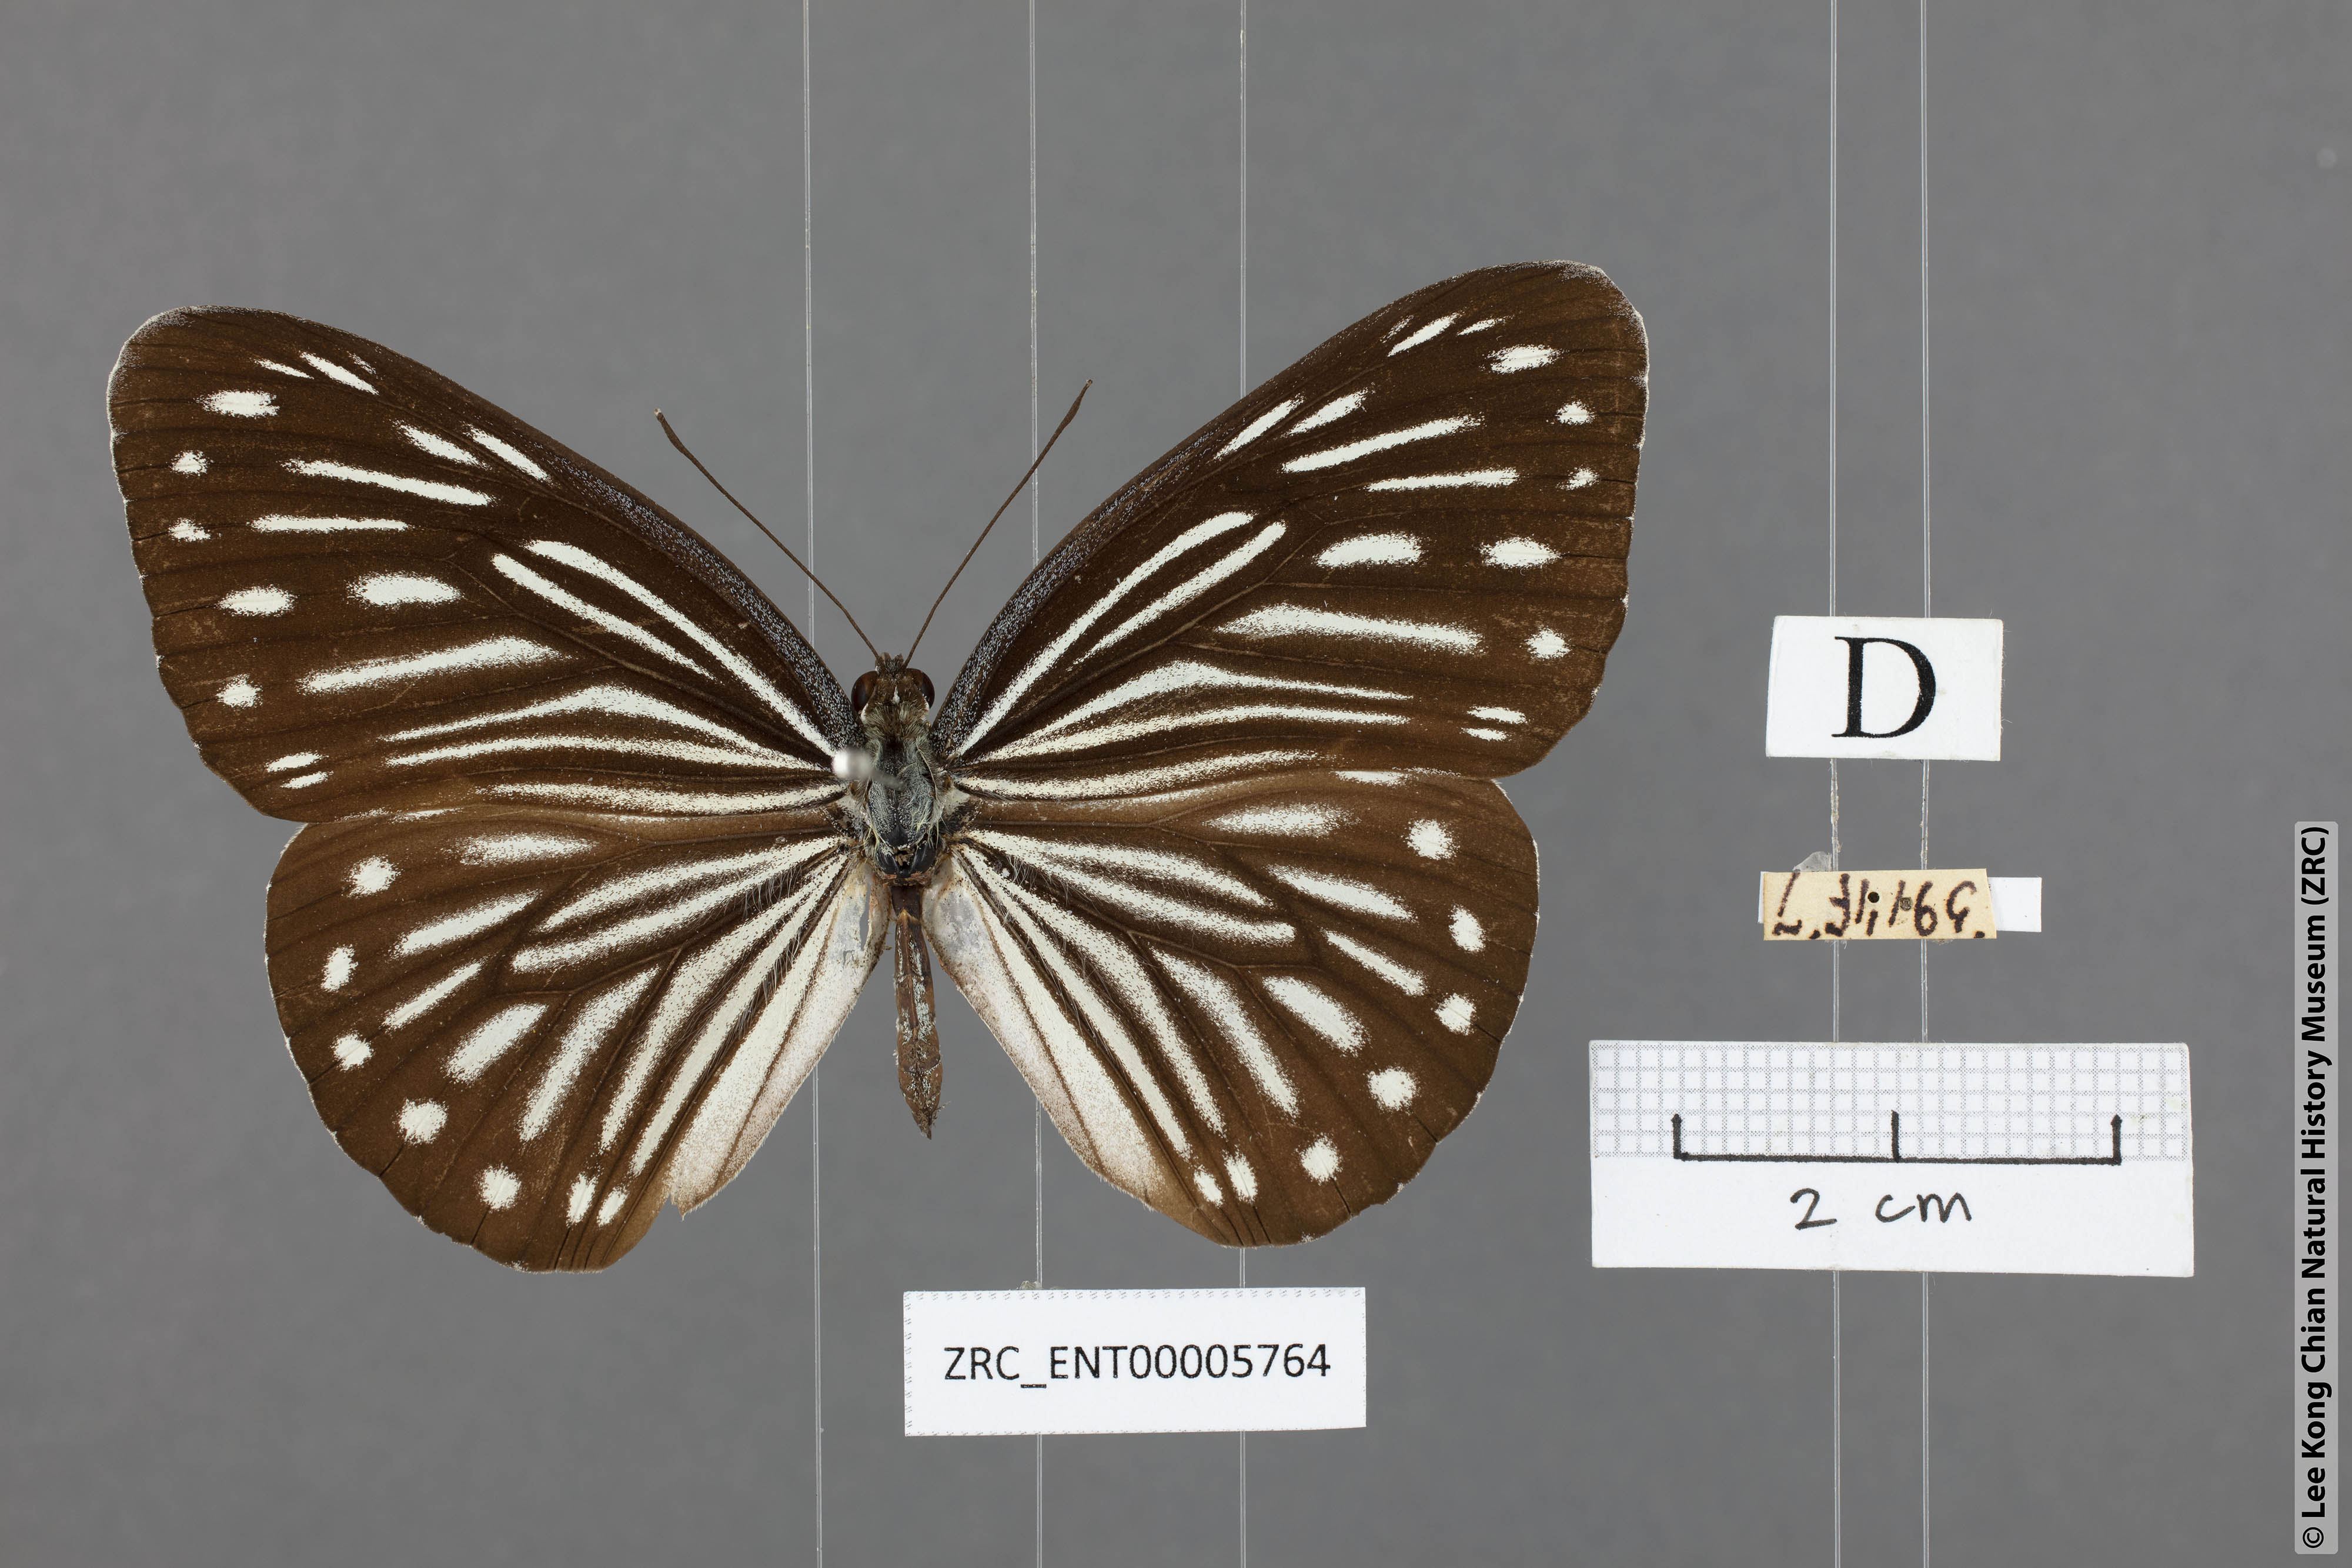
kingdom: Animalia
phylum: Arthropoda
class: Insecta
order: Lepidoptera
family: Pieridae
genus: Pareronia
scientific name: Pareronia anais
